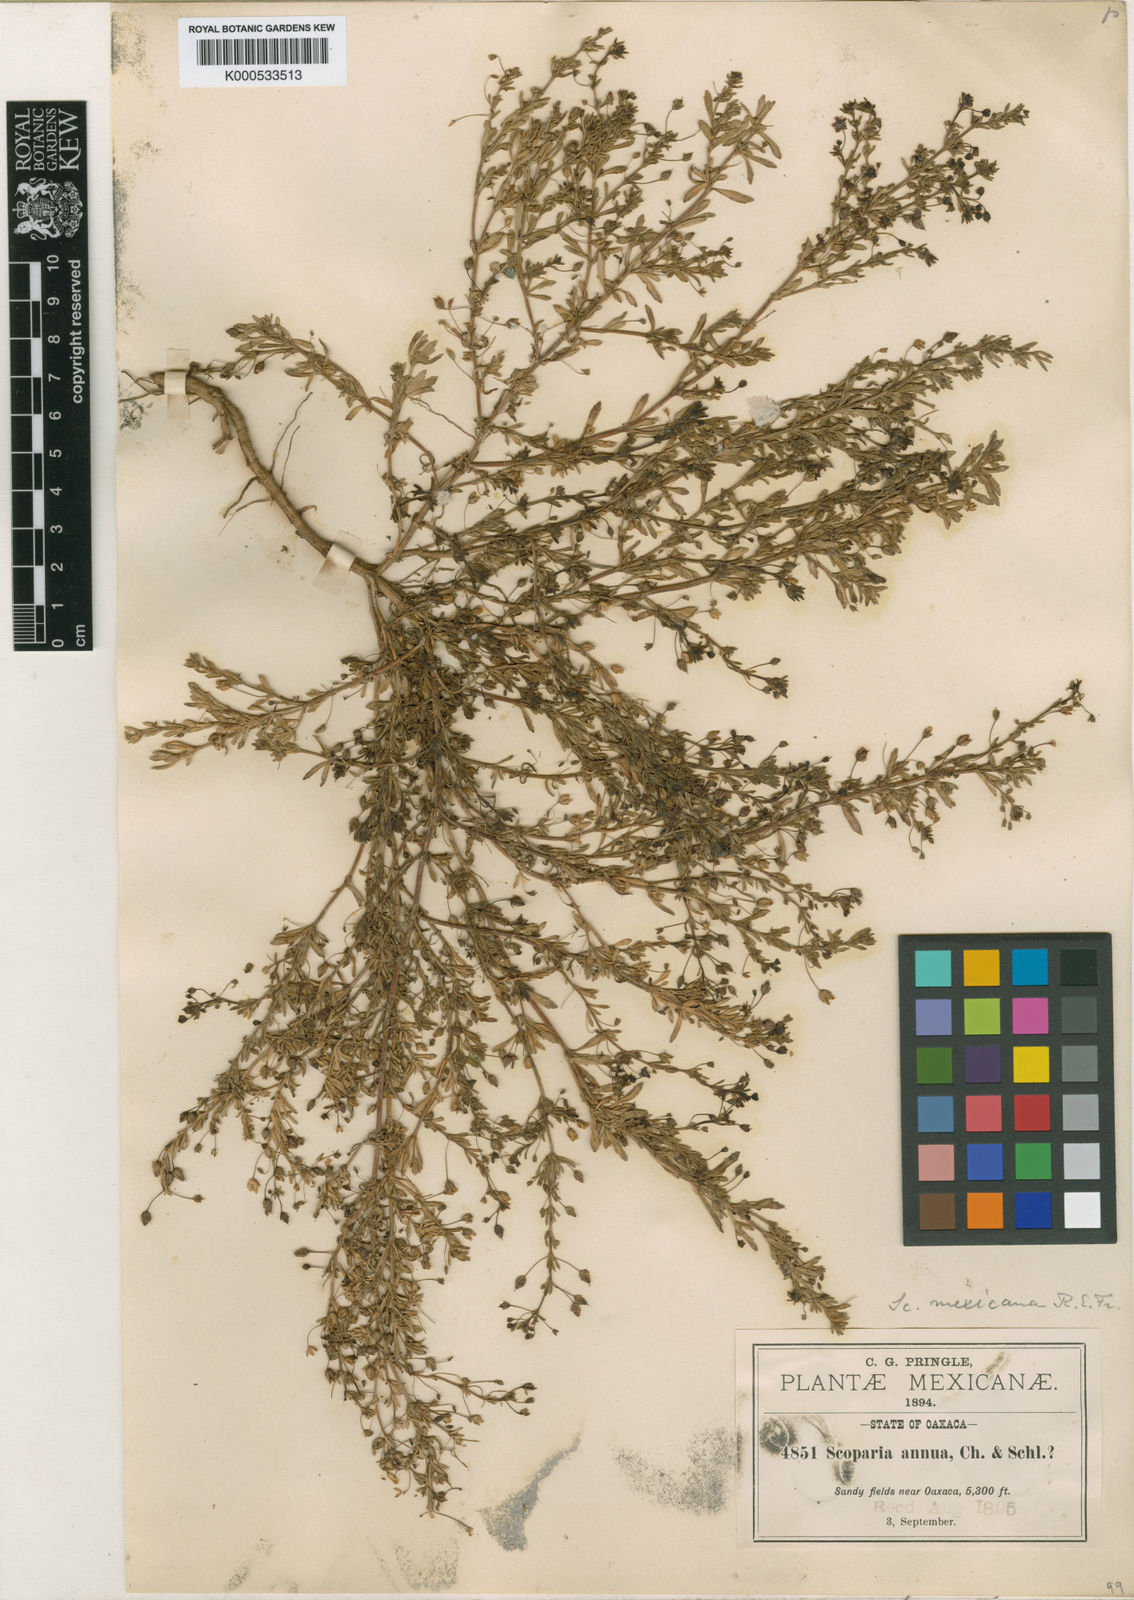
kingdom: Plantae
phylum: Tracheophyta
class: Magnoliopsida
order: Lamiales
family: Plantaginaceae
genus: Scoparia
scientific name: Scoparia mexicana
